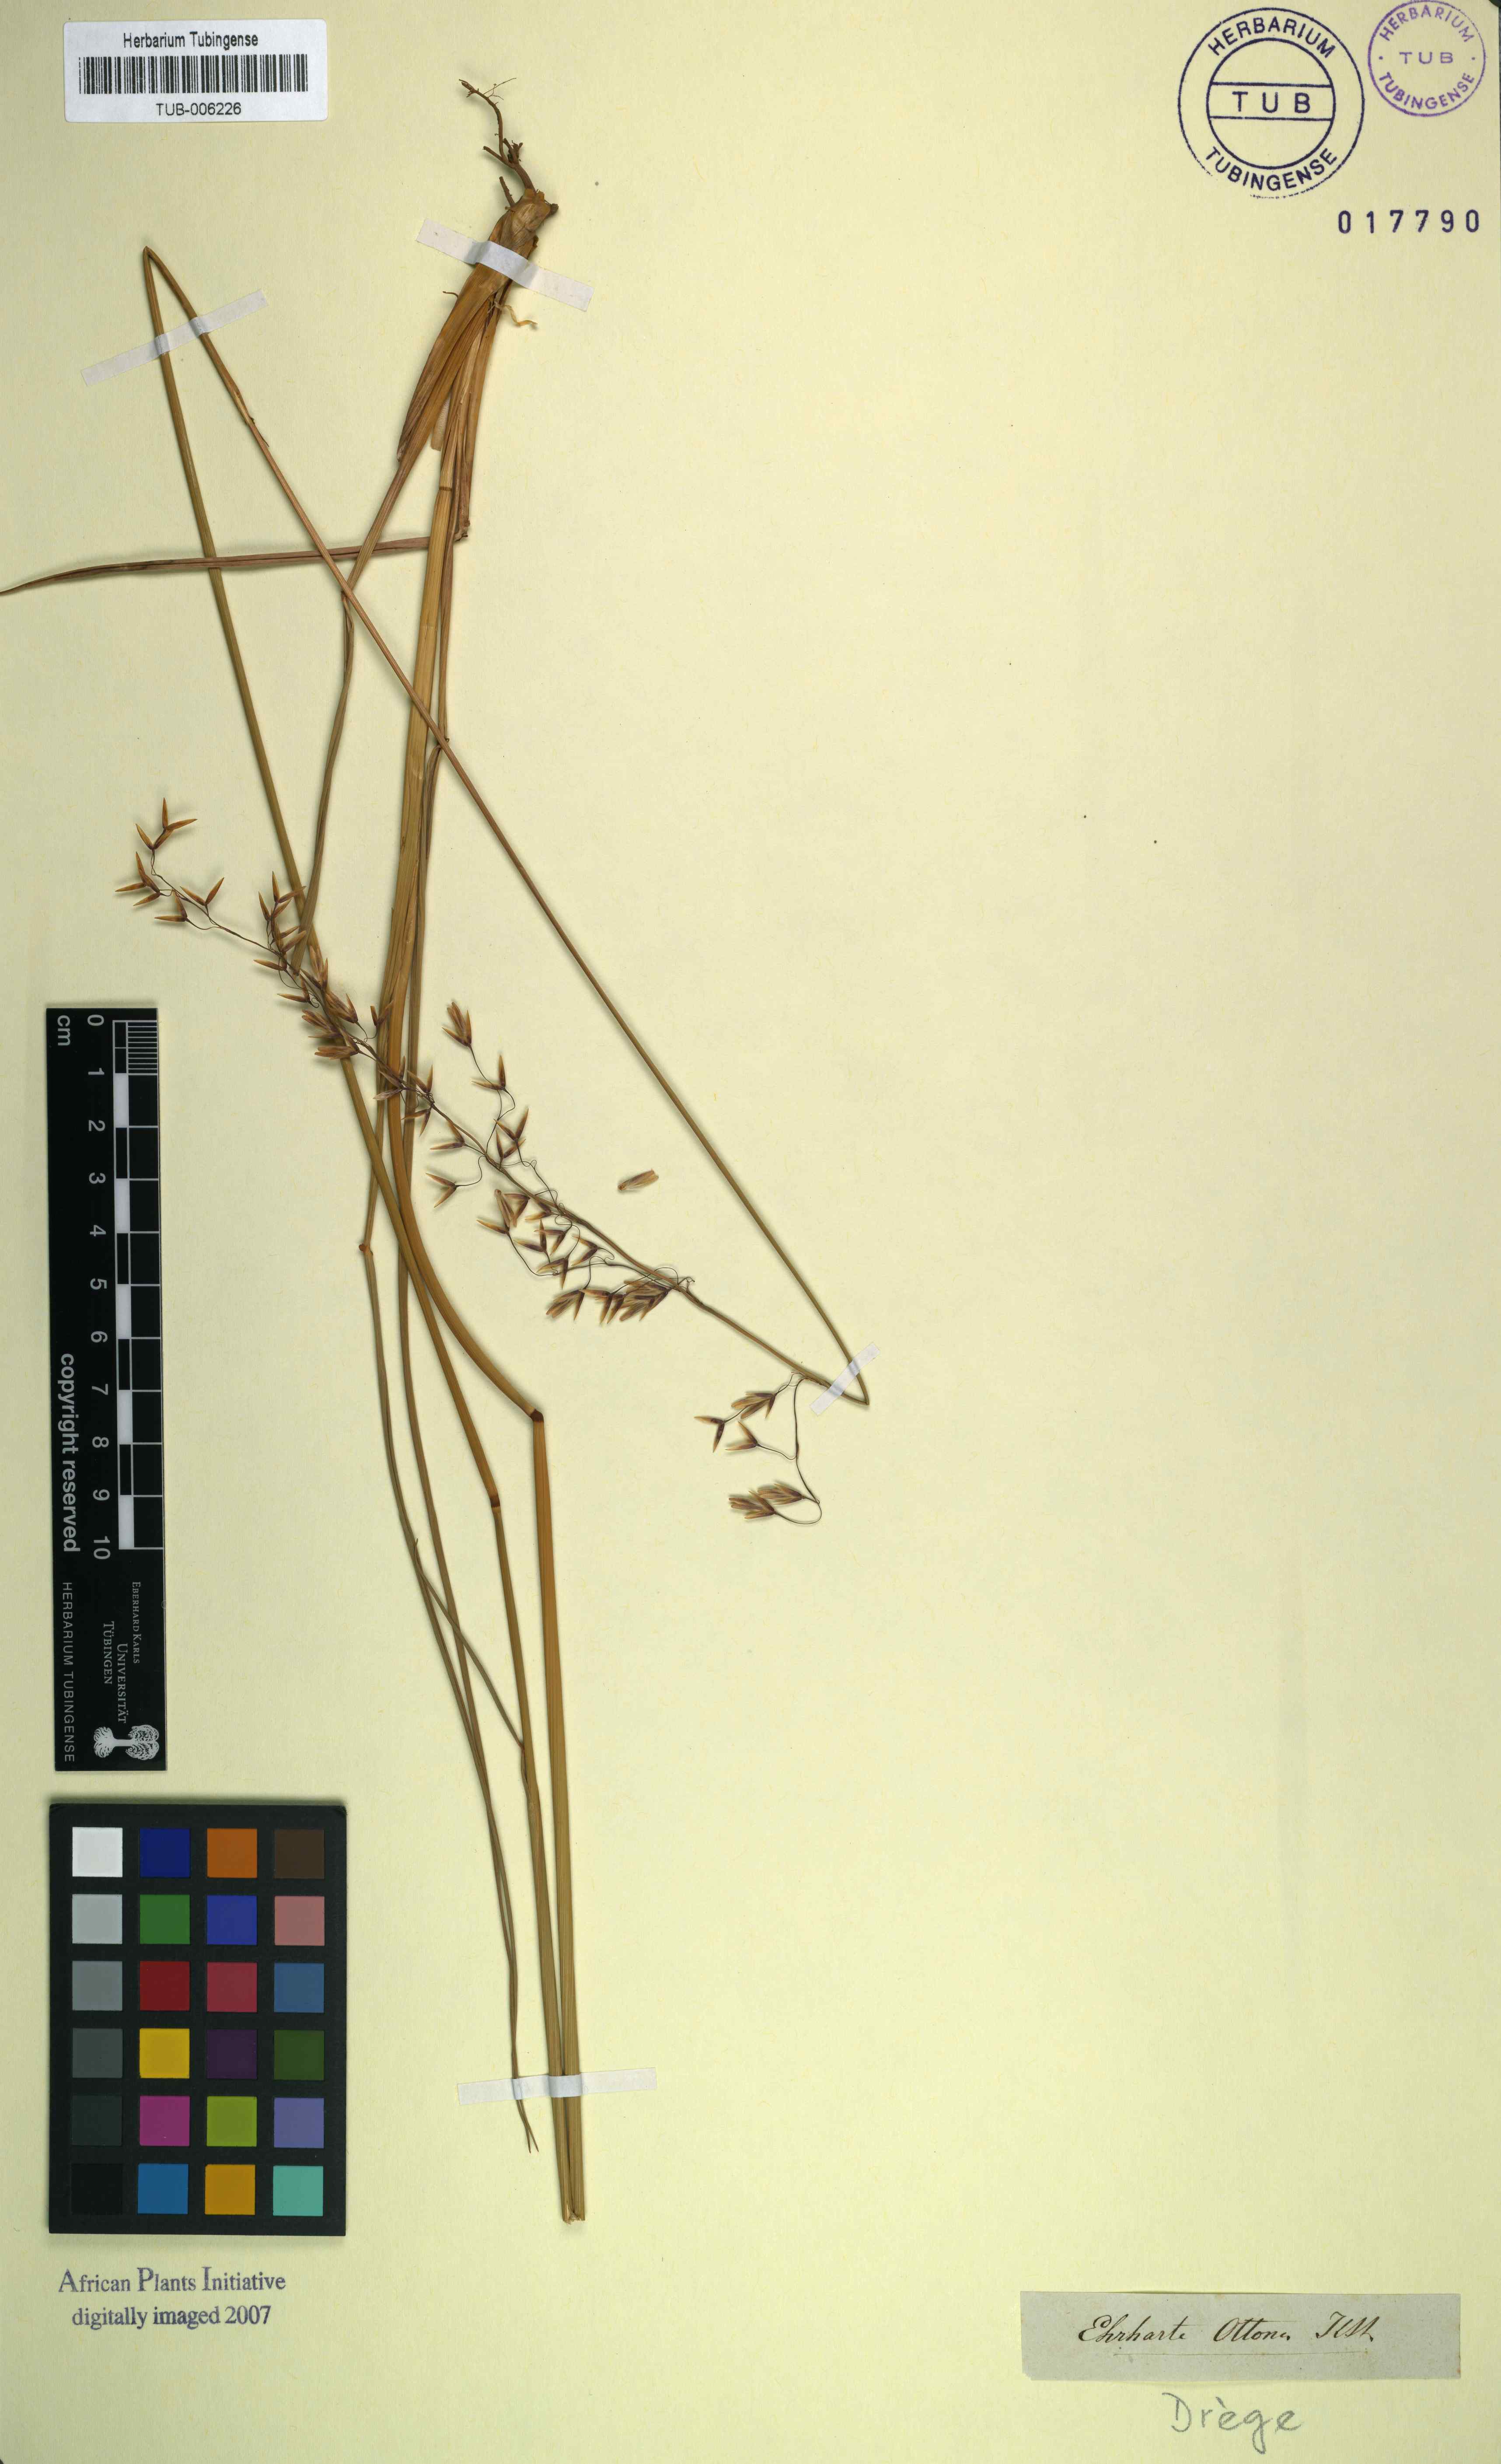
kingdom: Plantae
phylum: Tracheophyta
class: Liliopsida
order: Poales
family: Poaceae
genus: Ehrharta
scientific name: Ehrharta longifolia
